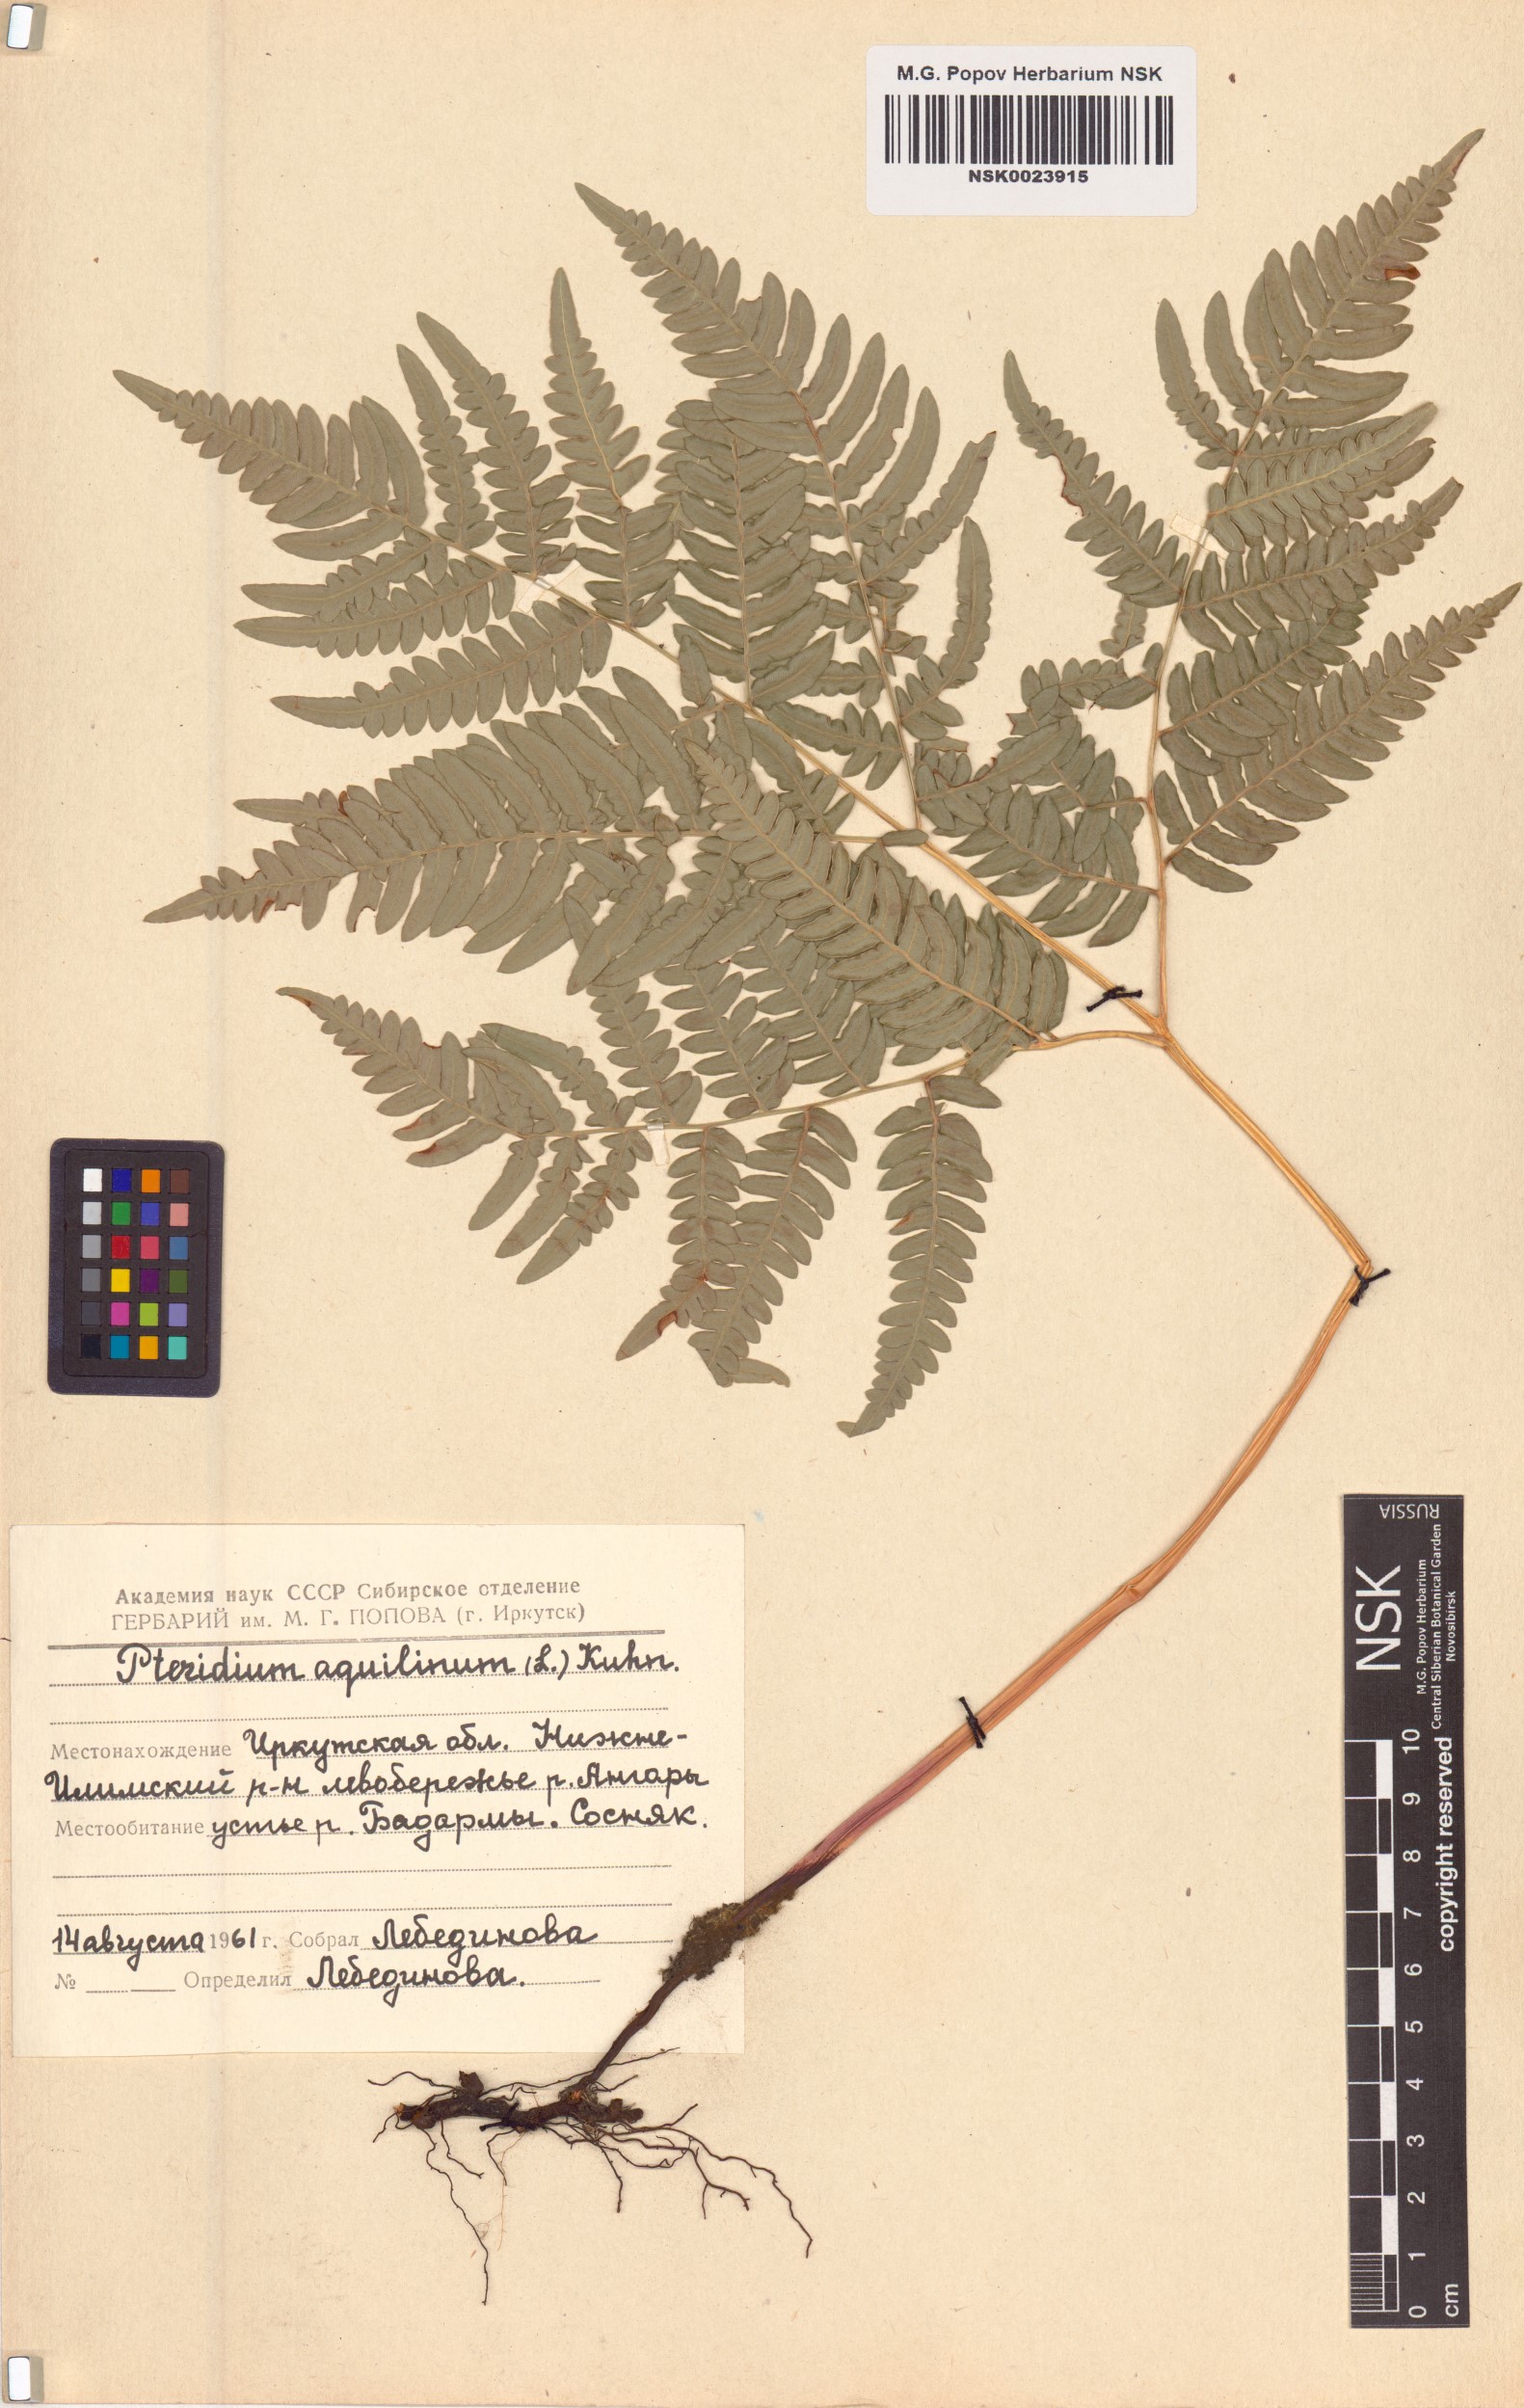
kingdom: Plantae
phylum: Tracheophyta
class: Polypodiopsida
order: Polypodiales
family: Dennstaedtiaceae
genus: Pteridium
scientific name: Pteridium aquilinum
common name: Bracken
